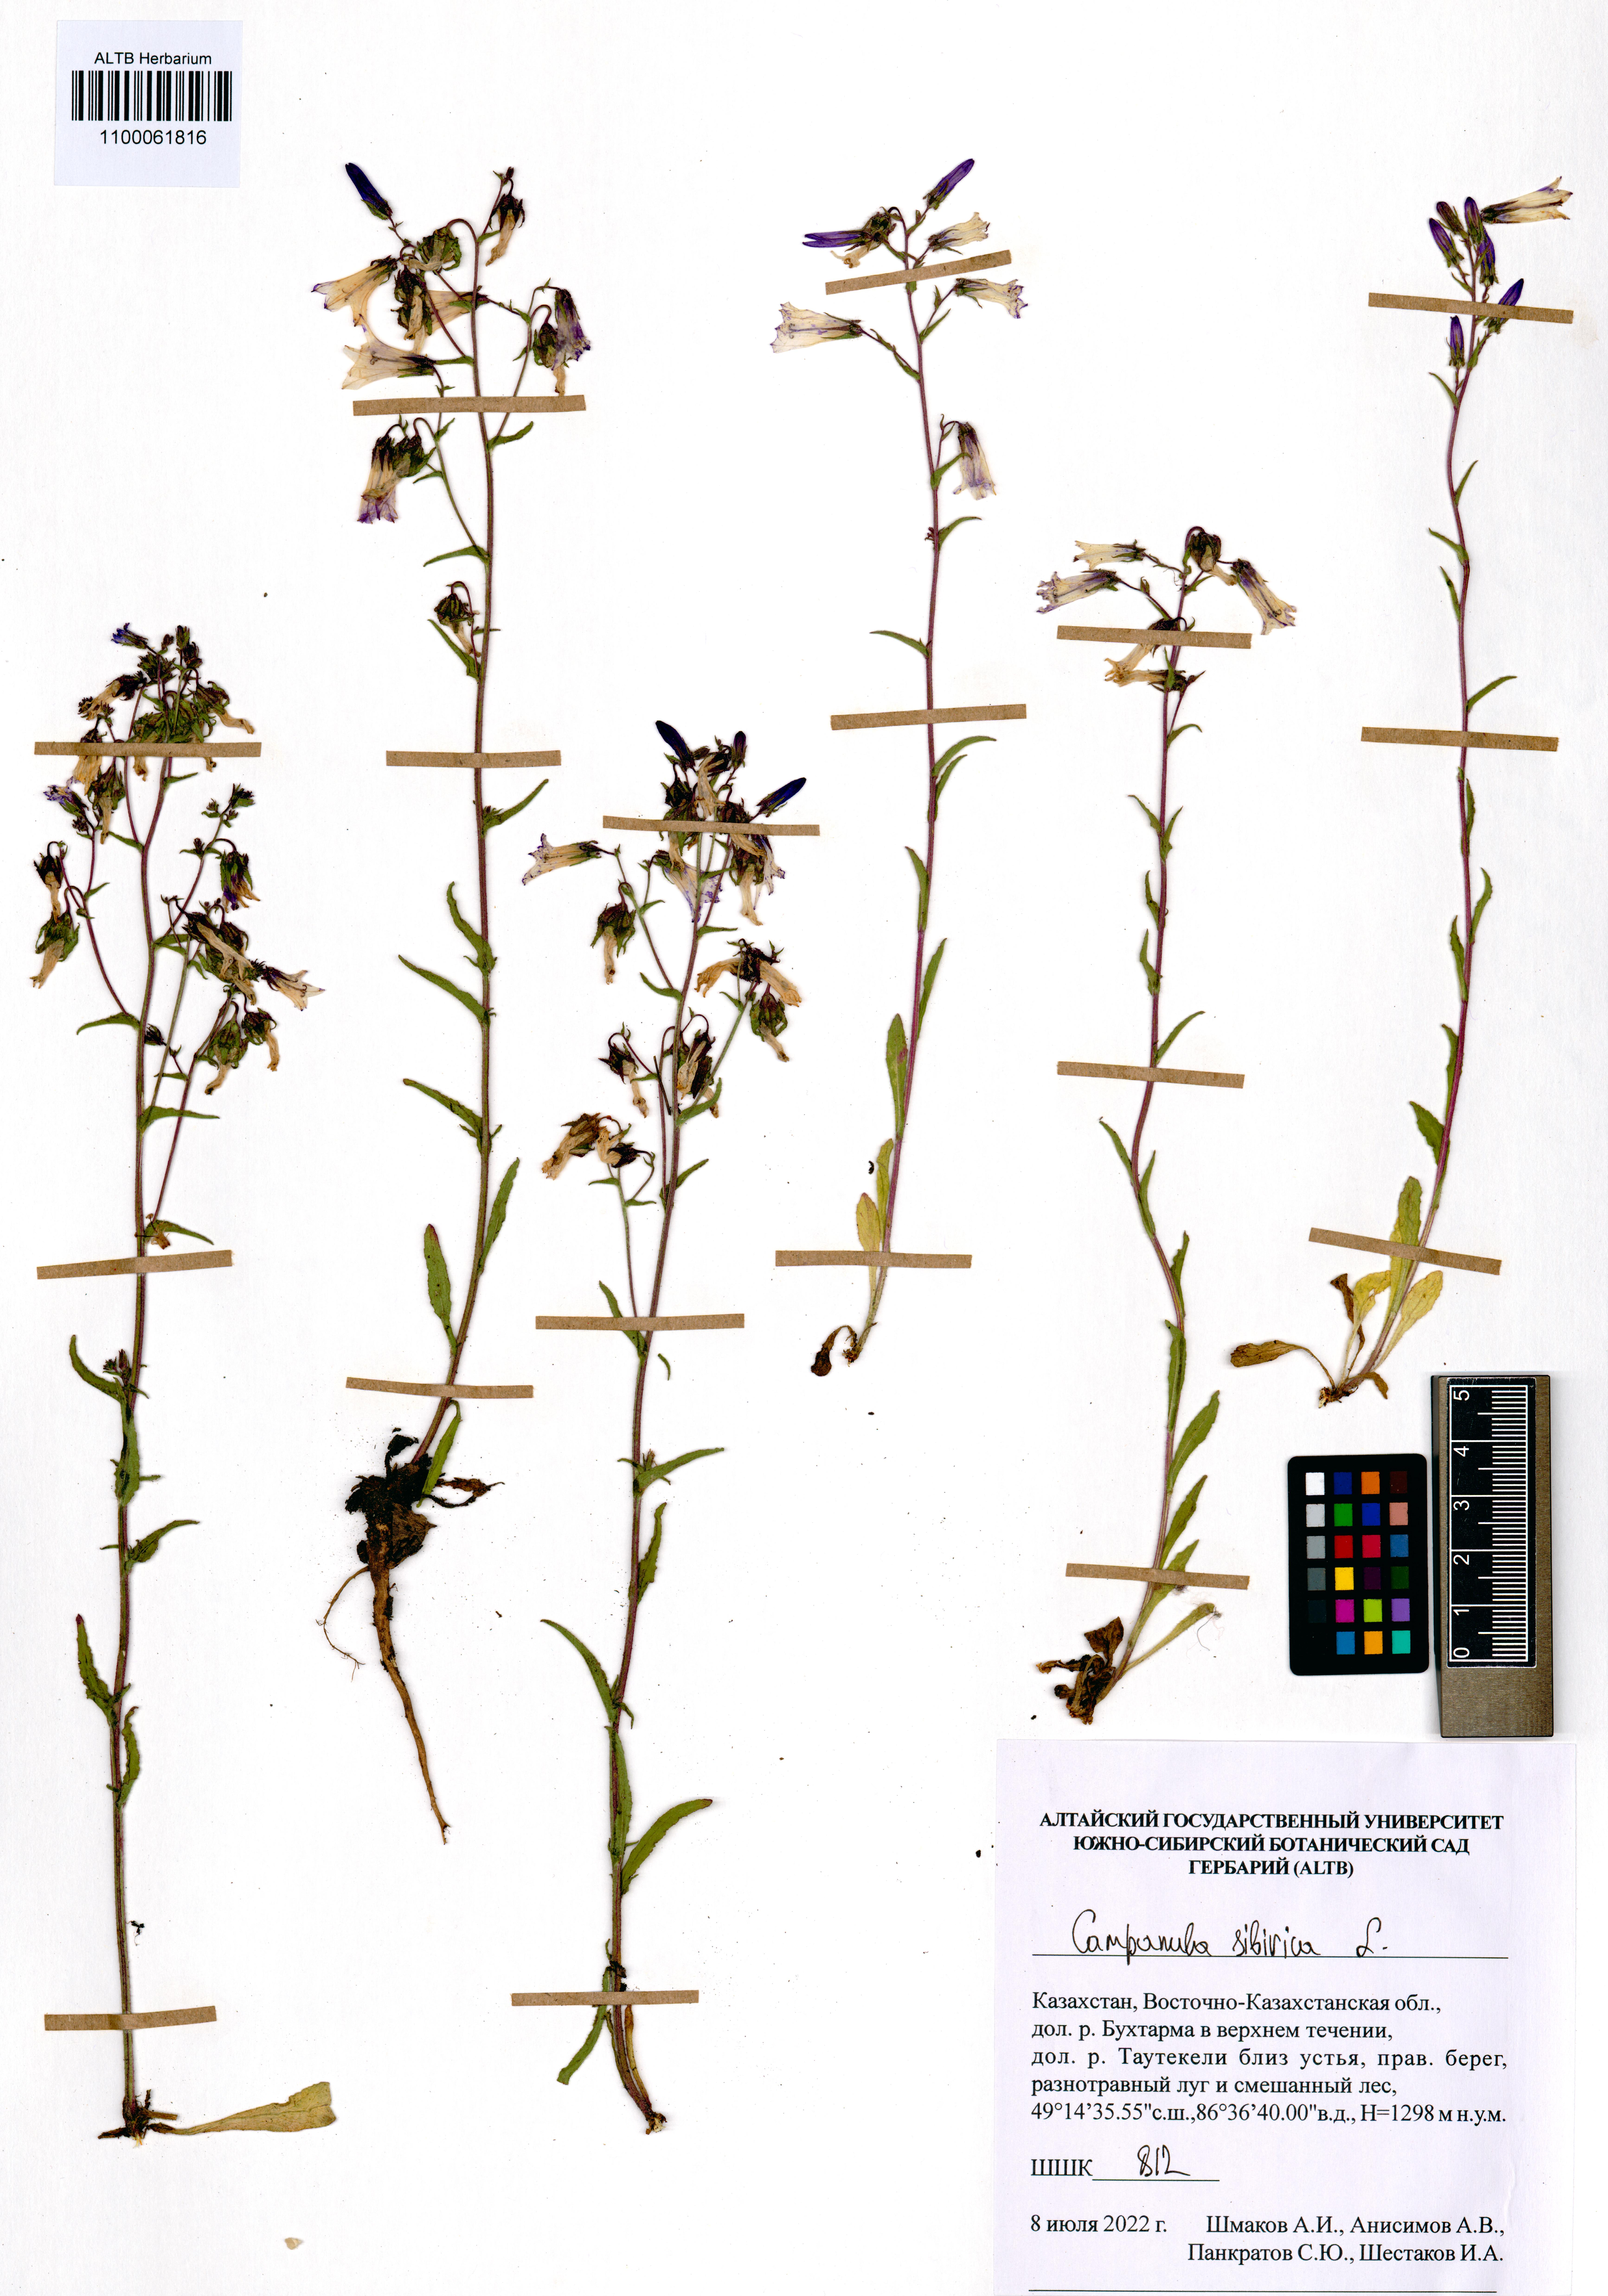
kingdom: Plantae
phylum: Tracheophyta
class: Magnoliopsida
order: Asterales
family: Campanulaceae
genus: Campanula
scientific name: Campanula sibirica
